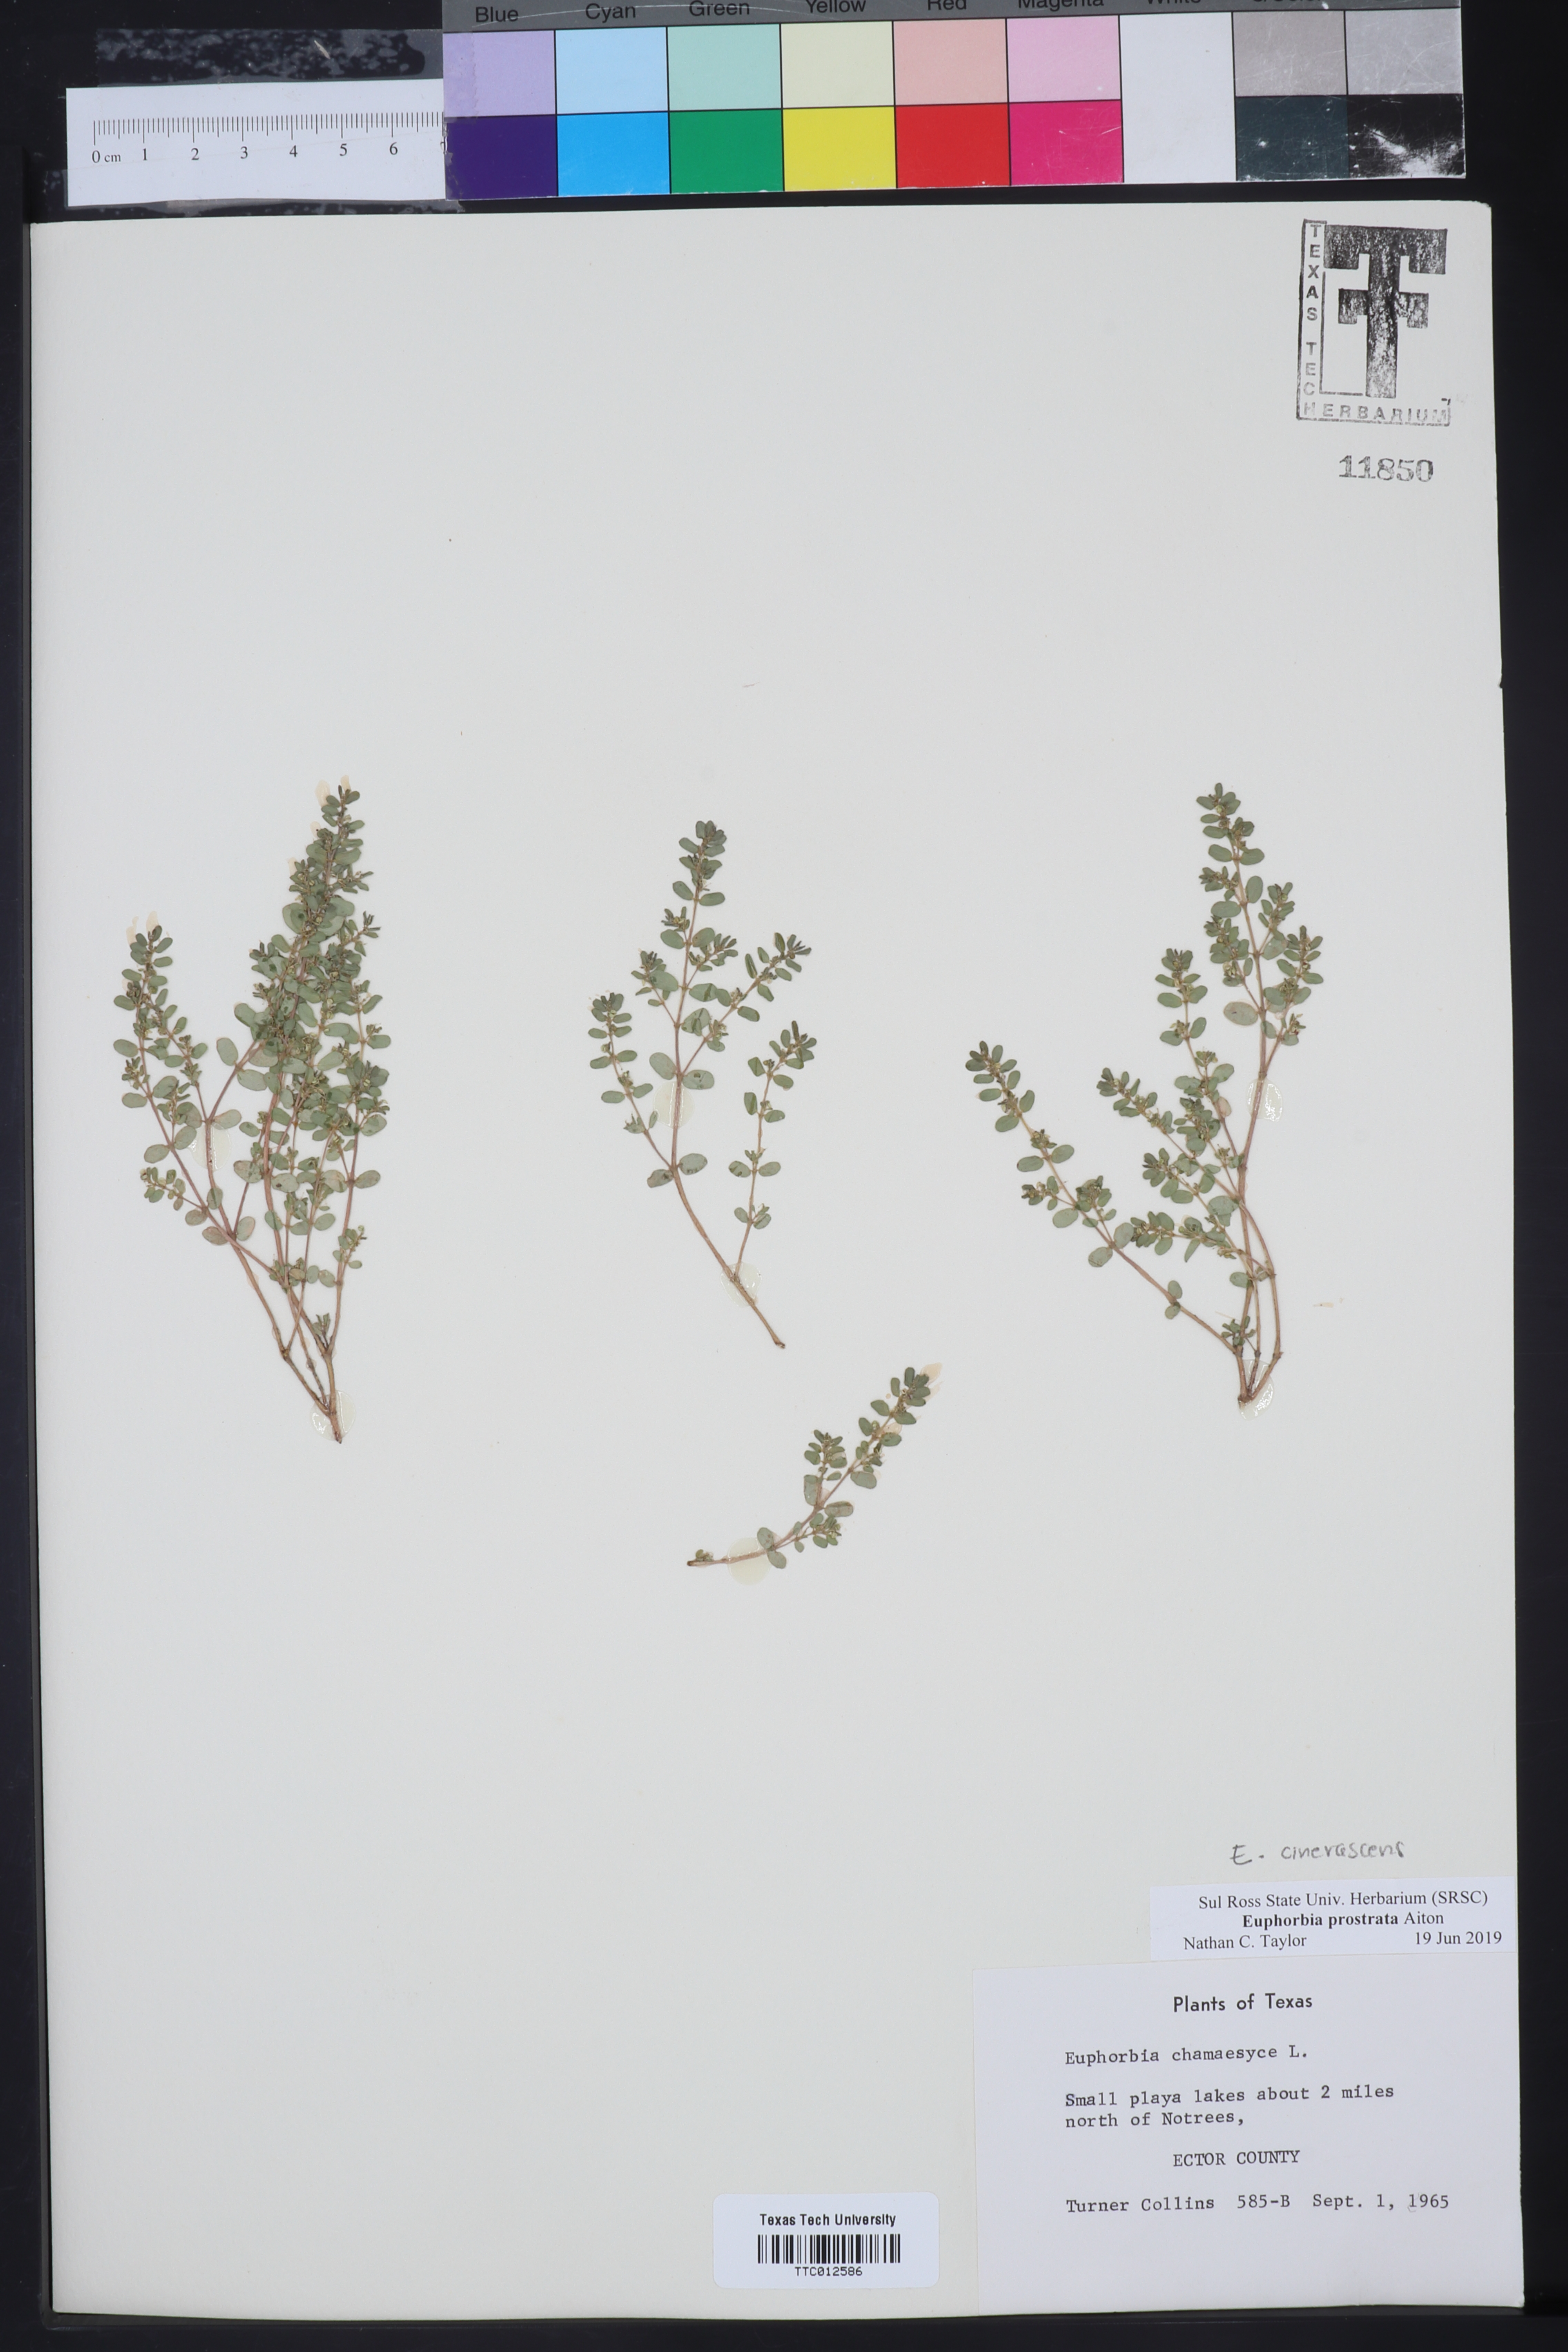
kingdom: Plantae
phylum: Tracheophyta
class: Magnoliopsida
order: Malpighiales
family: Euphorbiaceae
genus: Euphorbia
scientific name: Euphorbia prostrata
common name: Prostrate sandmat
